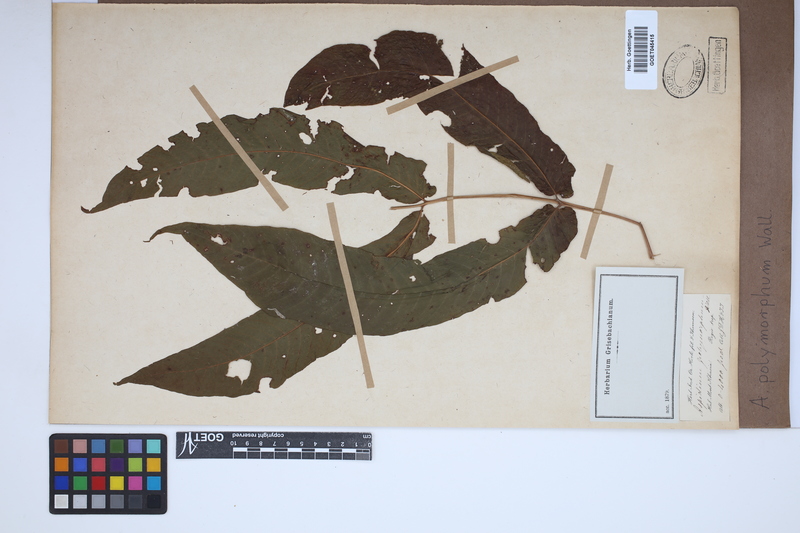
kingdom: Plantae
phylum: Tracheophyta
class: Polypodiopsida
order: Polypodiales
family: Tectariaceae
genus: Tectaria
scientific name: Tectaria polymorpha
